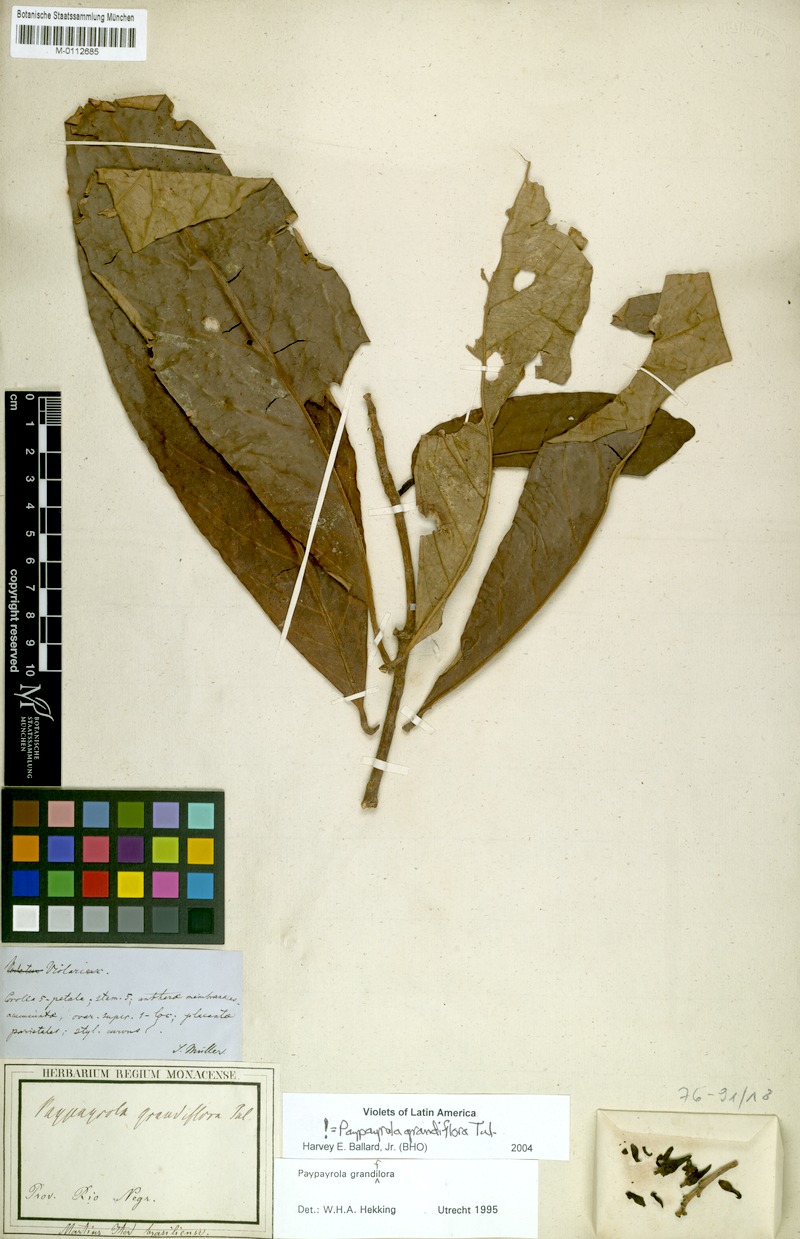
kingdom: Plantae
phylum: Tracheophyta
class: Magnoliopsida
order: Malpighiales
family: Violaceae
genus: Paypayrola
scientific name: Paypayrola grandiflora
